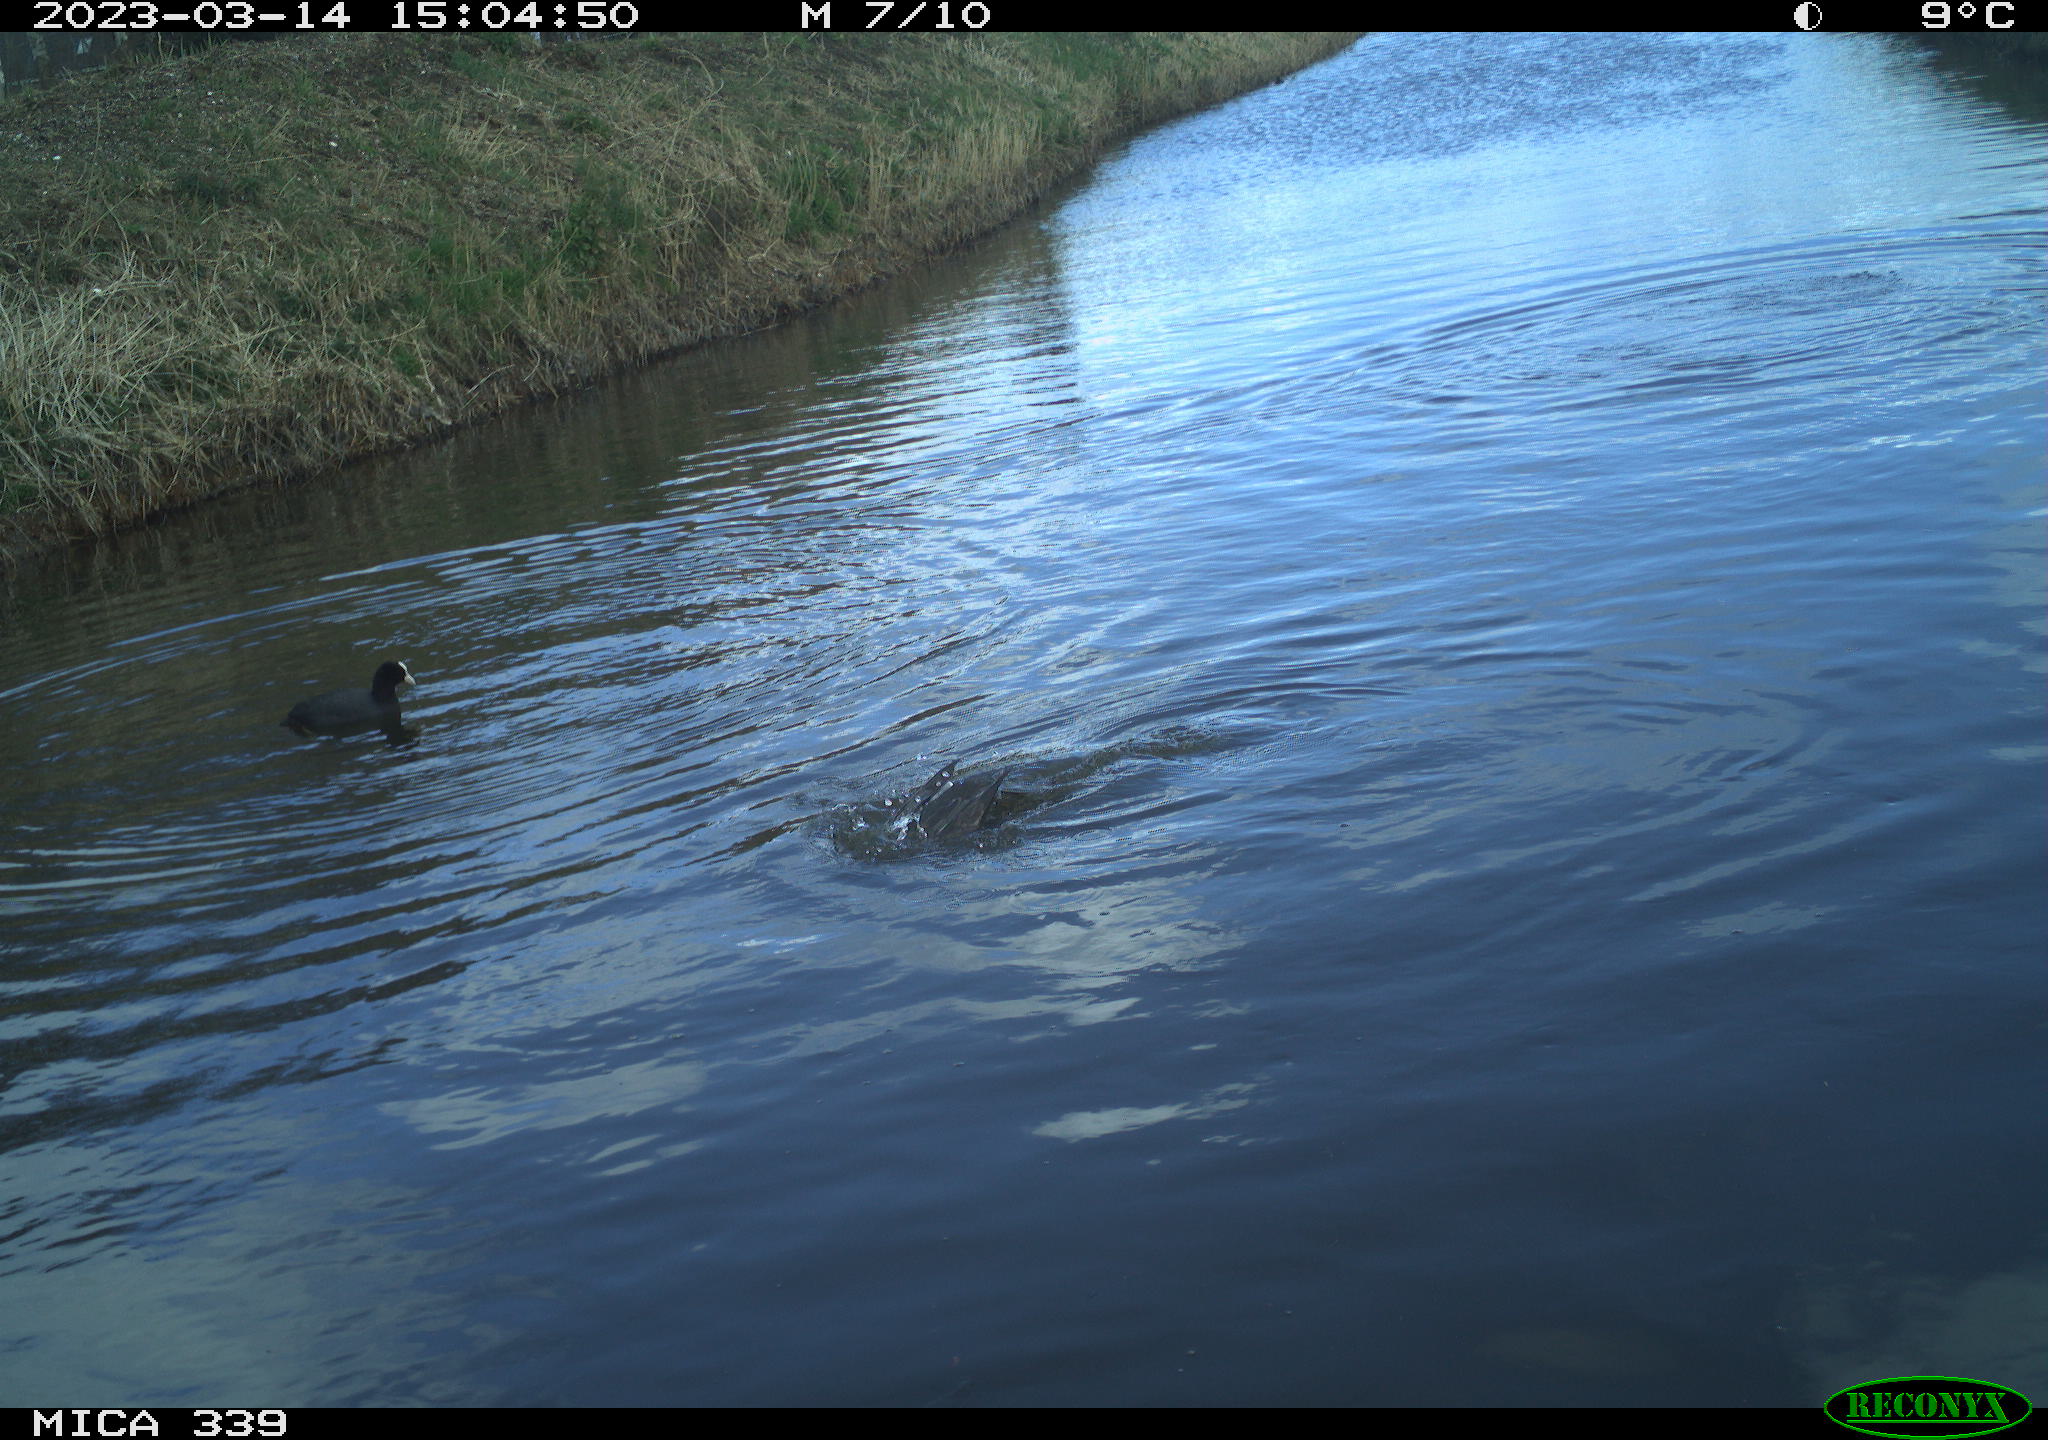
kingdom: Animalia
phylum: Chordata
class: Aves
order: Anseriformes
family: Anatidae
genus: Anas
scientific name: Anas
